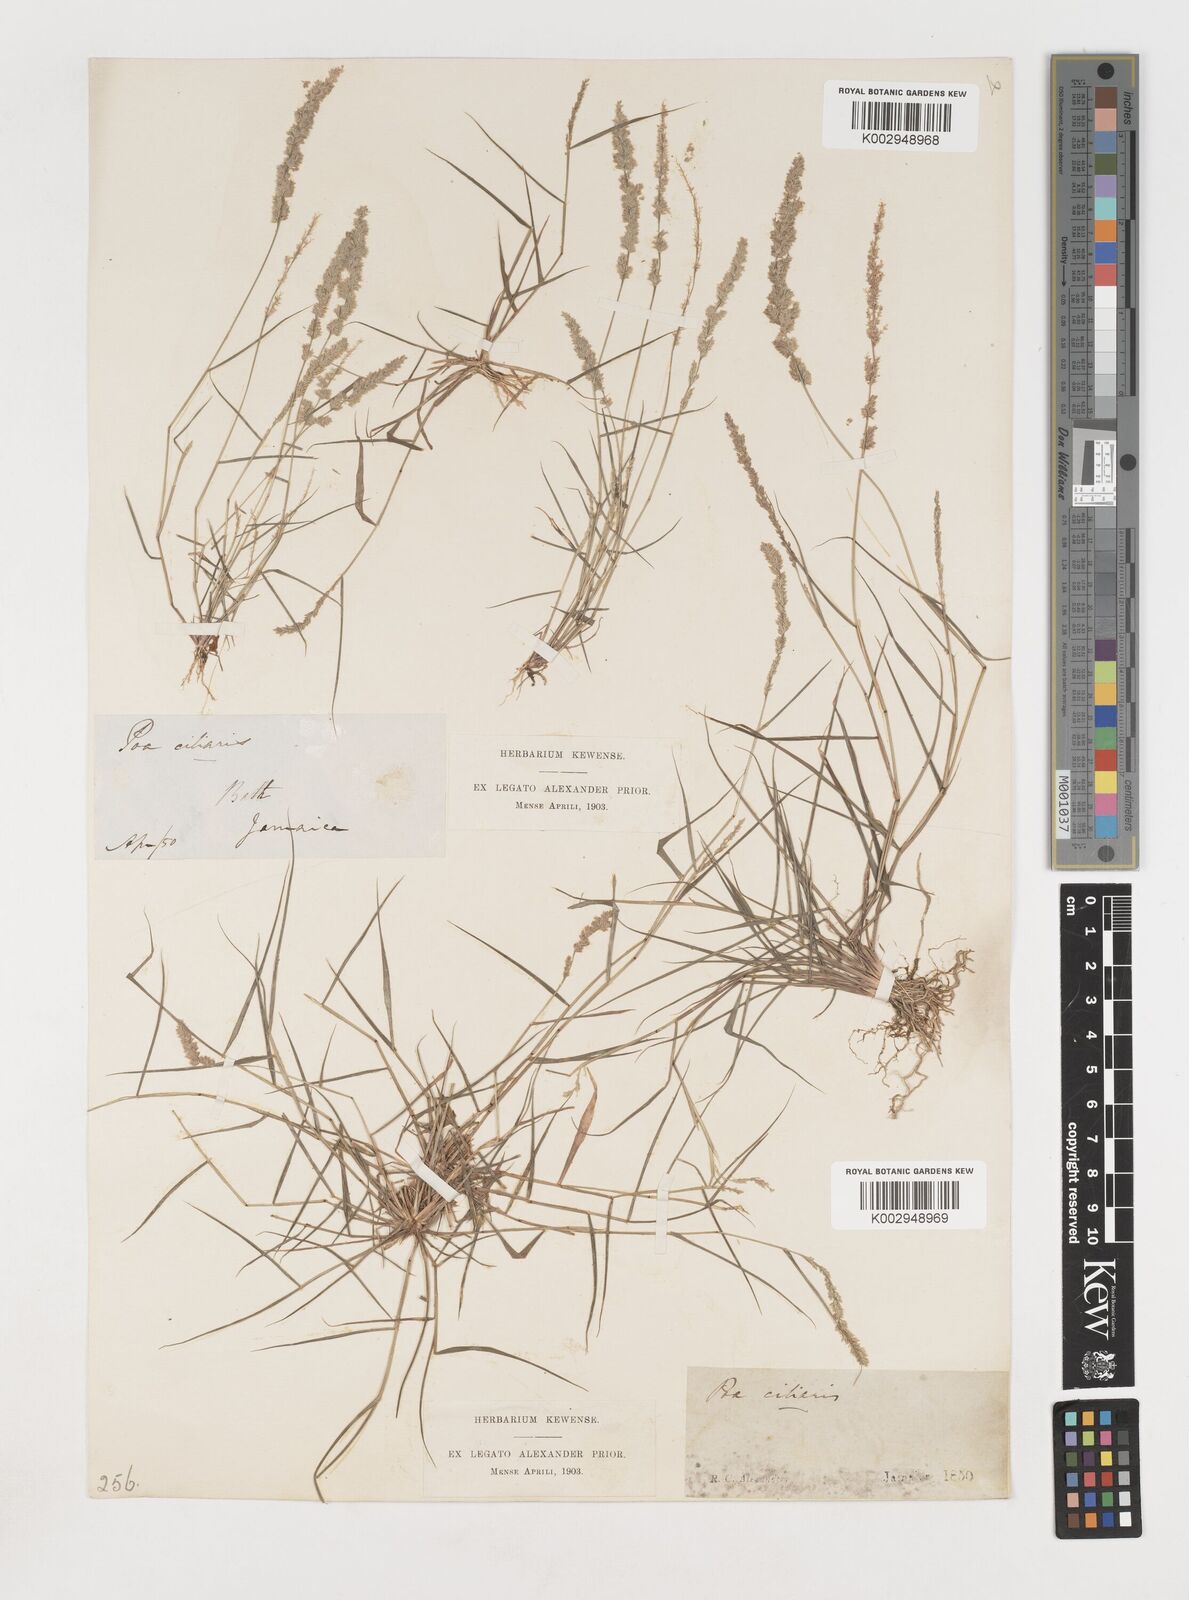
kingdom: Plantae
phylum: Tracheophyta
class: Liliopsida
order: Poales
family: Poaceae
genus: Eragrostis
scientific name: Eragrostis ciliaris
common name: Gophertail lovegrass
